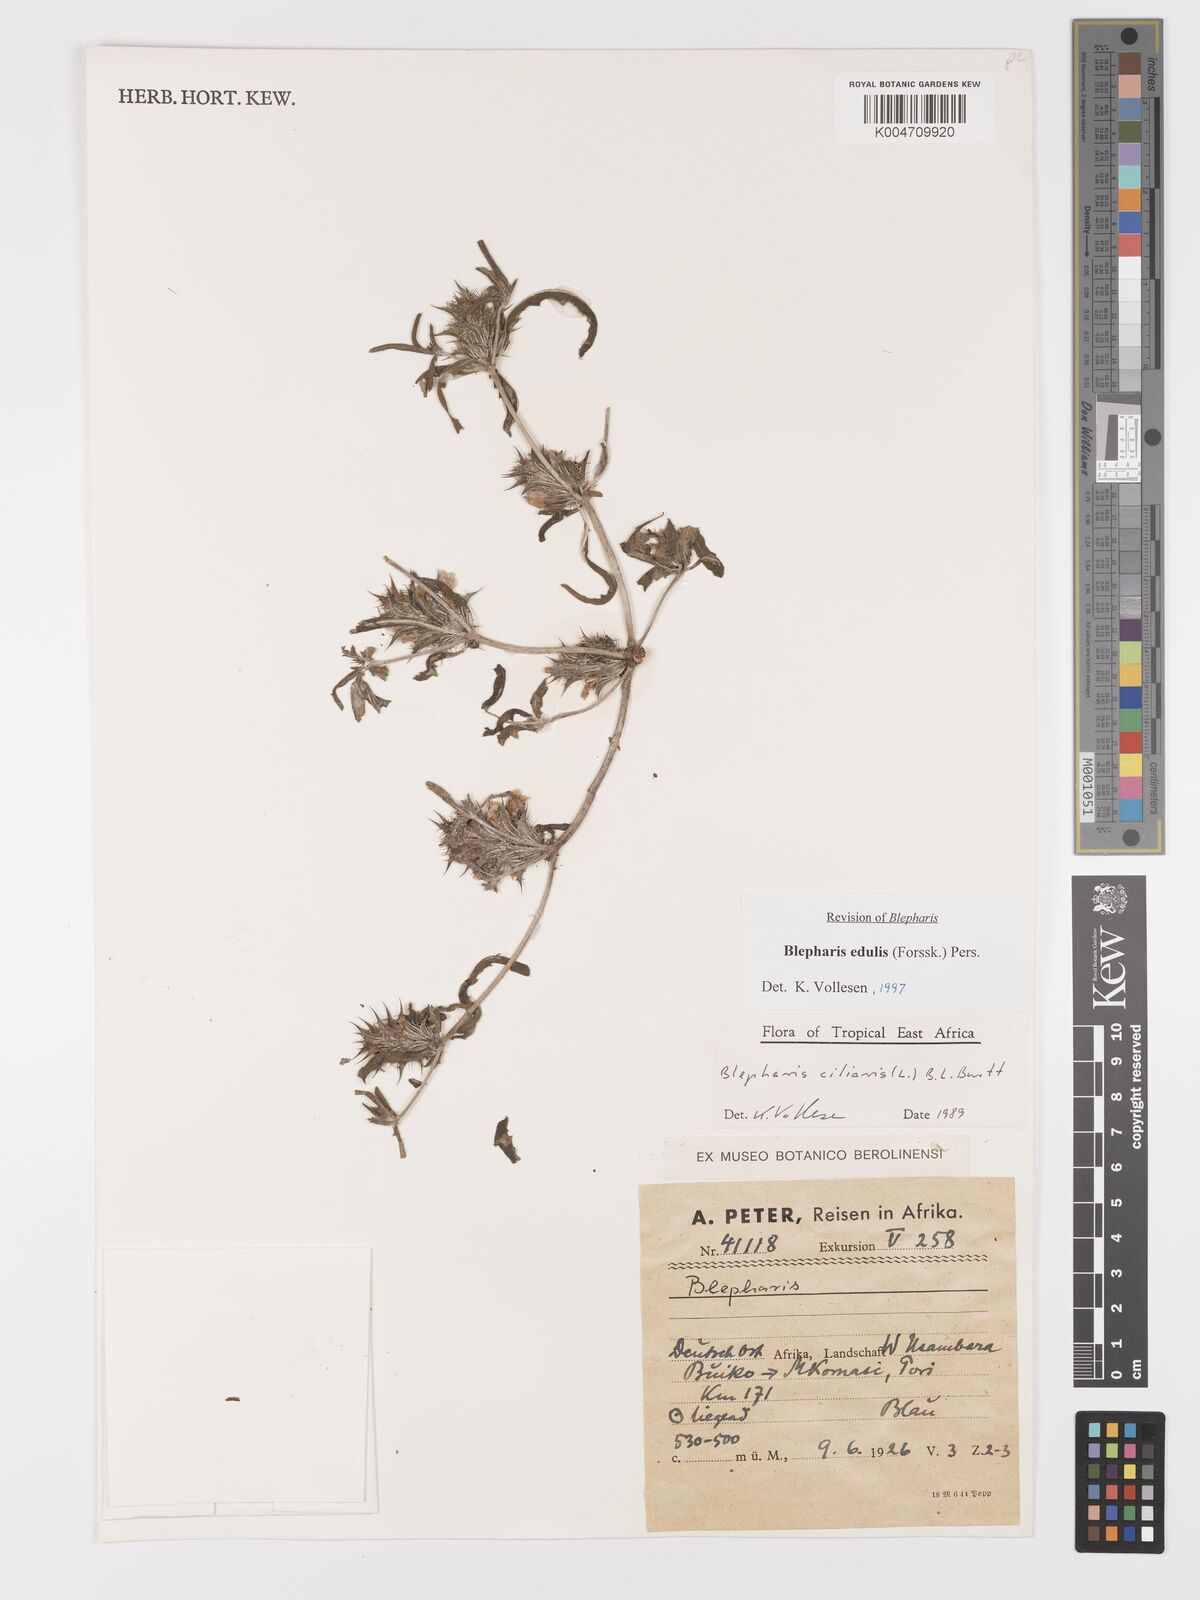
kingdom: Plantae
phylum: Tracheophyta
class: Magnoliopsida
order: Lamiales
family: Acanthaceae
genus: Blepharis
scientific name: Blepharis edulis
